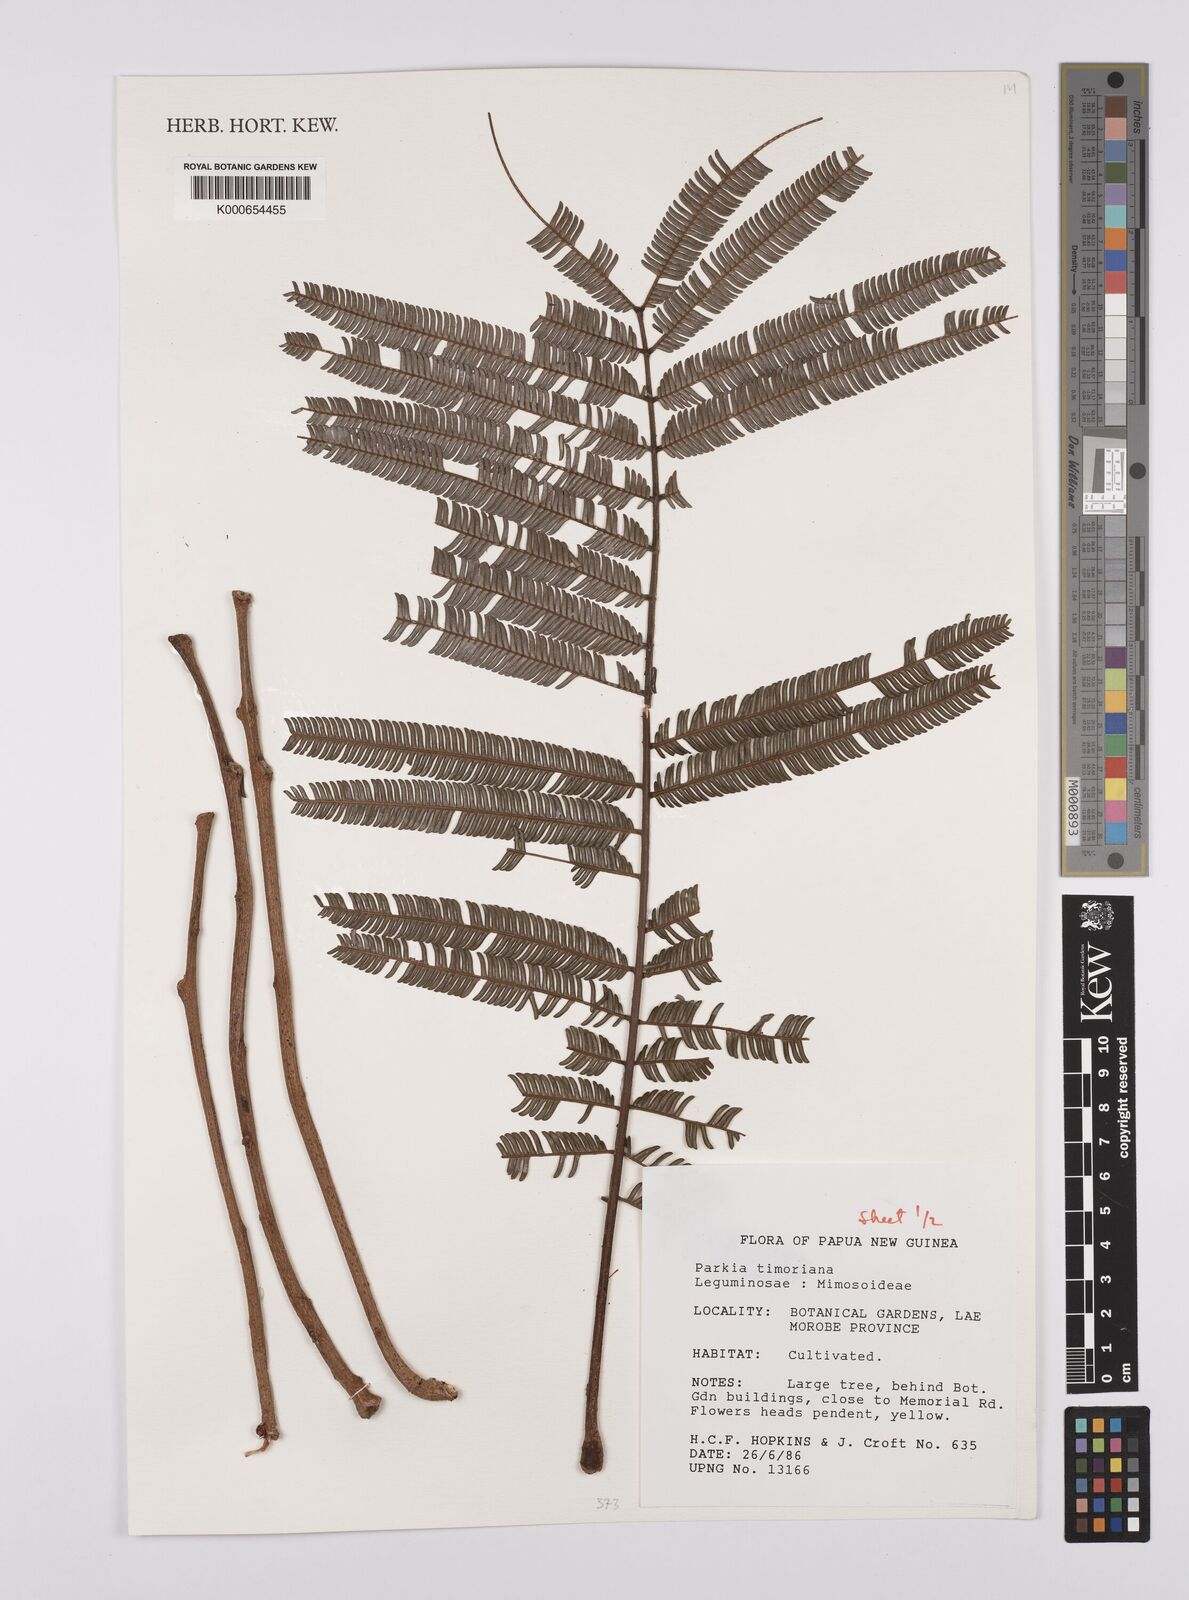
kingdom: Plantae
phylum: Tracheophyta
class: Magnoliopsida
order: Fabales
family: Fabaceae
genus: Parkia
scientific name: Parkia timoriana
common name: Legume
